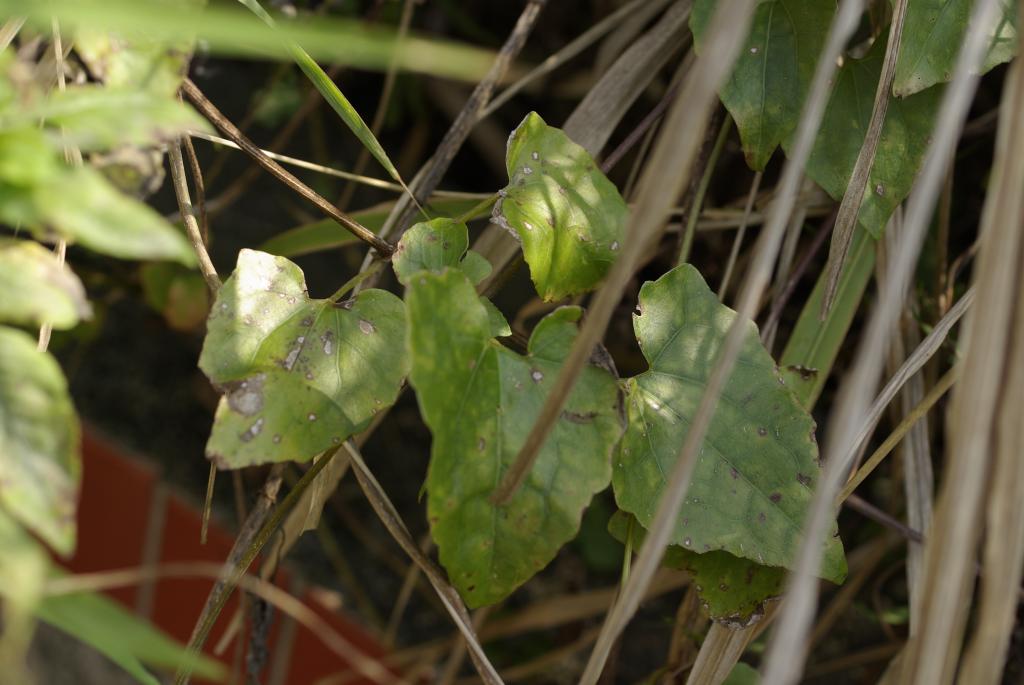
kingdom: Plantae
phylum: Tracheophyta
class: Magnoliopsida
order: Asterales
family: Asteraceae
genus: Mikania
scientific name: Mikania micrantha
